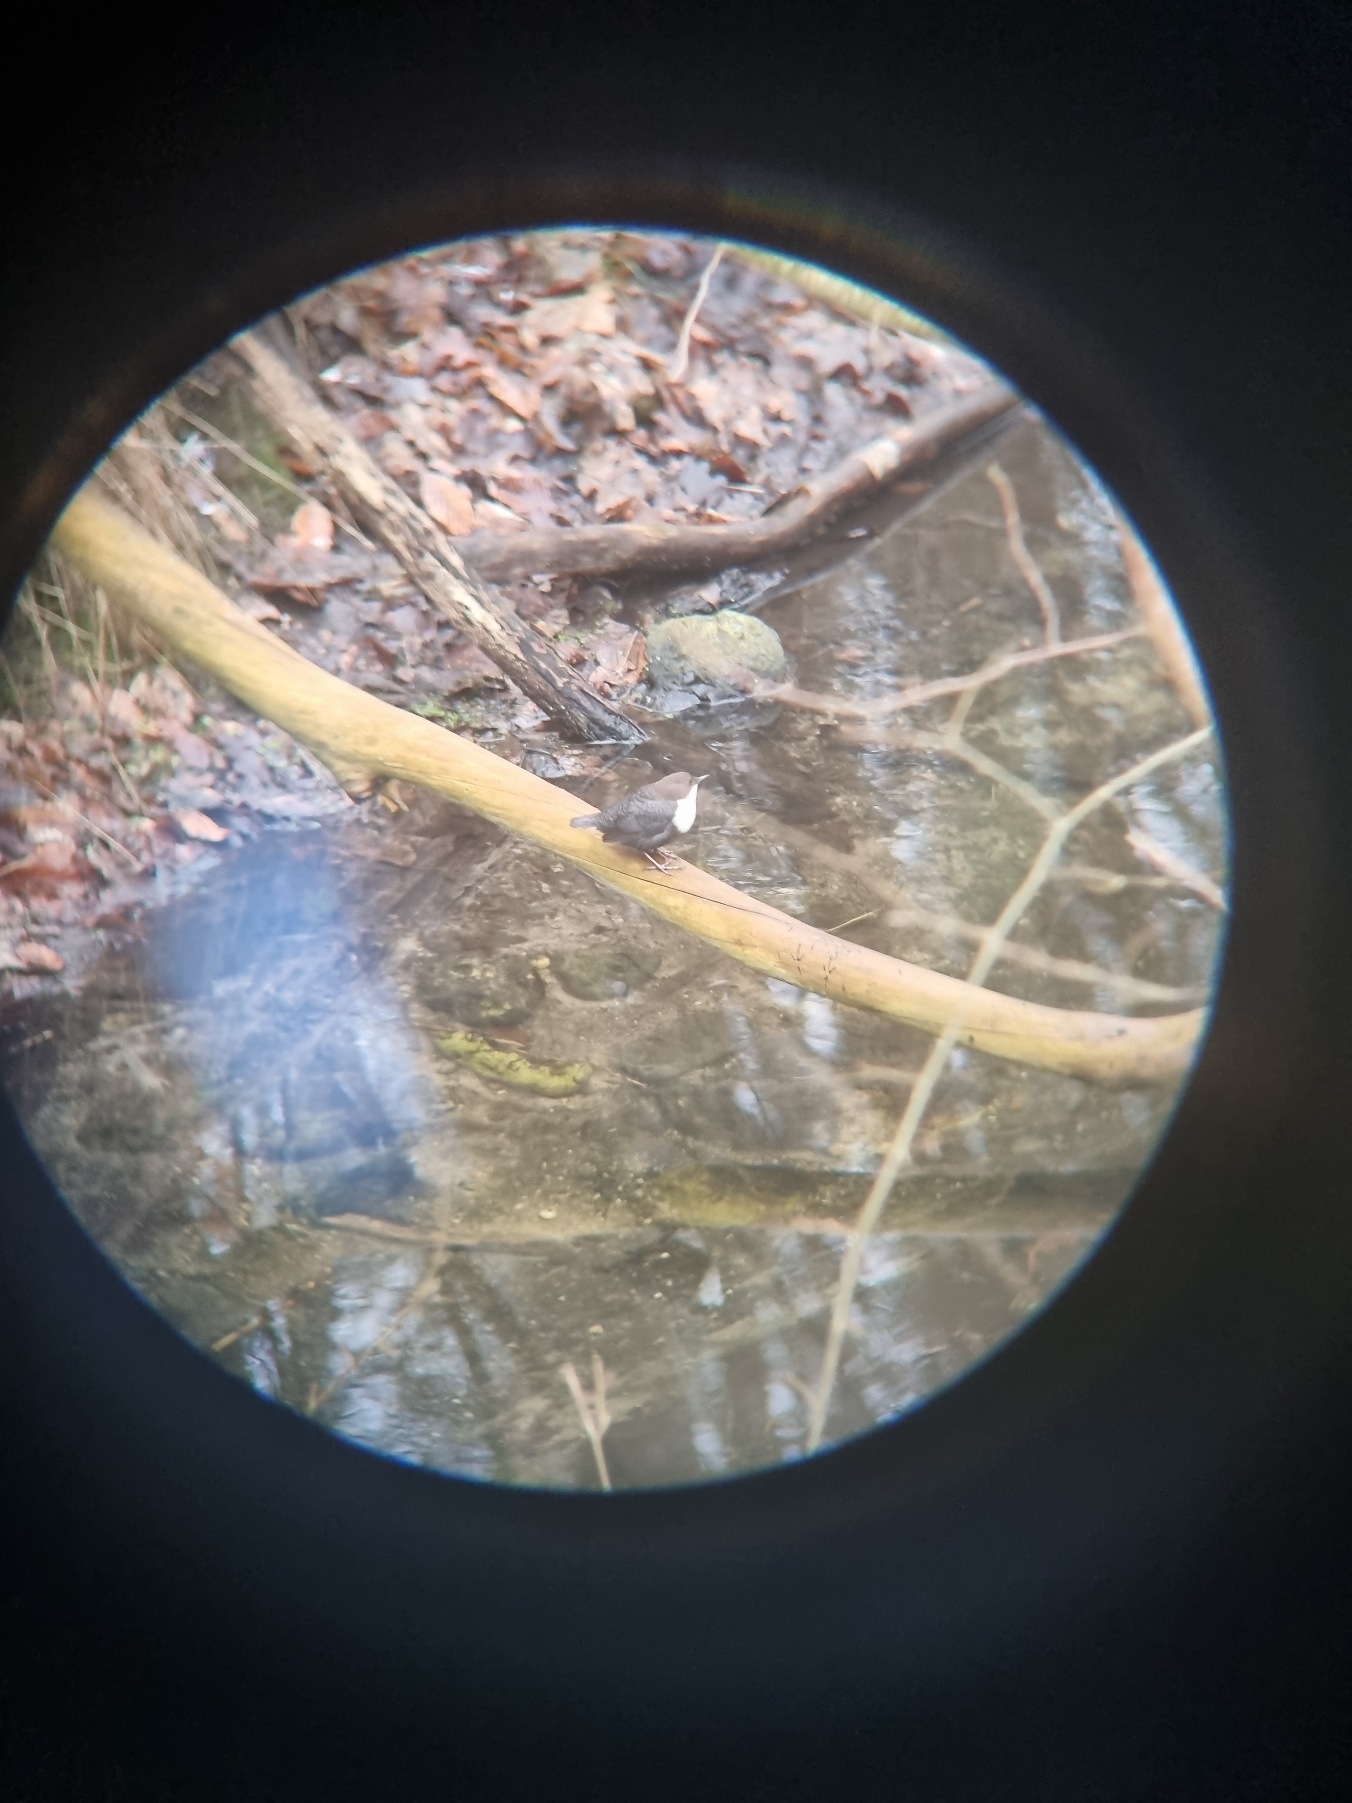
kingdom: Animalia
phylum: Chordata
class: Aves
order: Passeriformes
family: Cinclidae
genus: Cinclus
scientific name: Cinclus cinclus
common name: Vandstær
